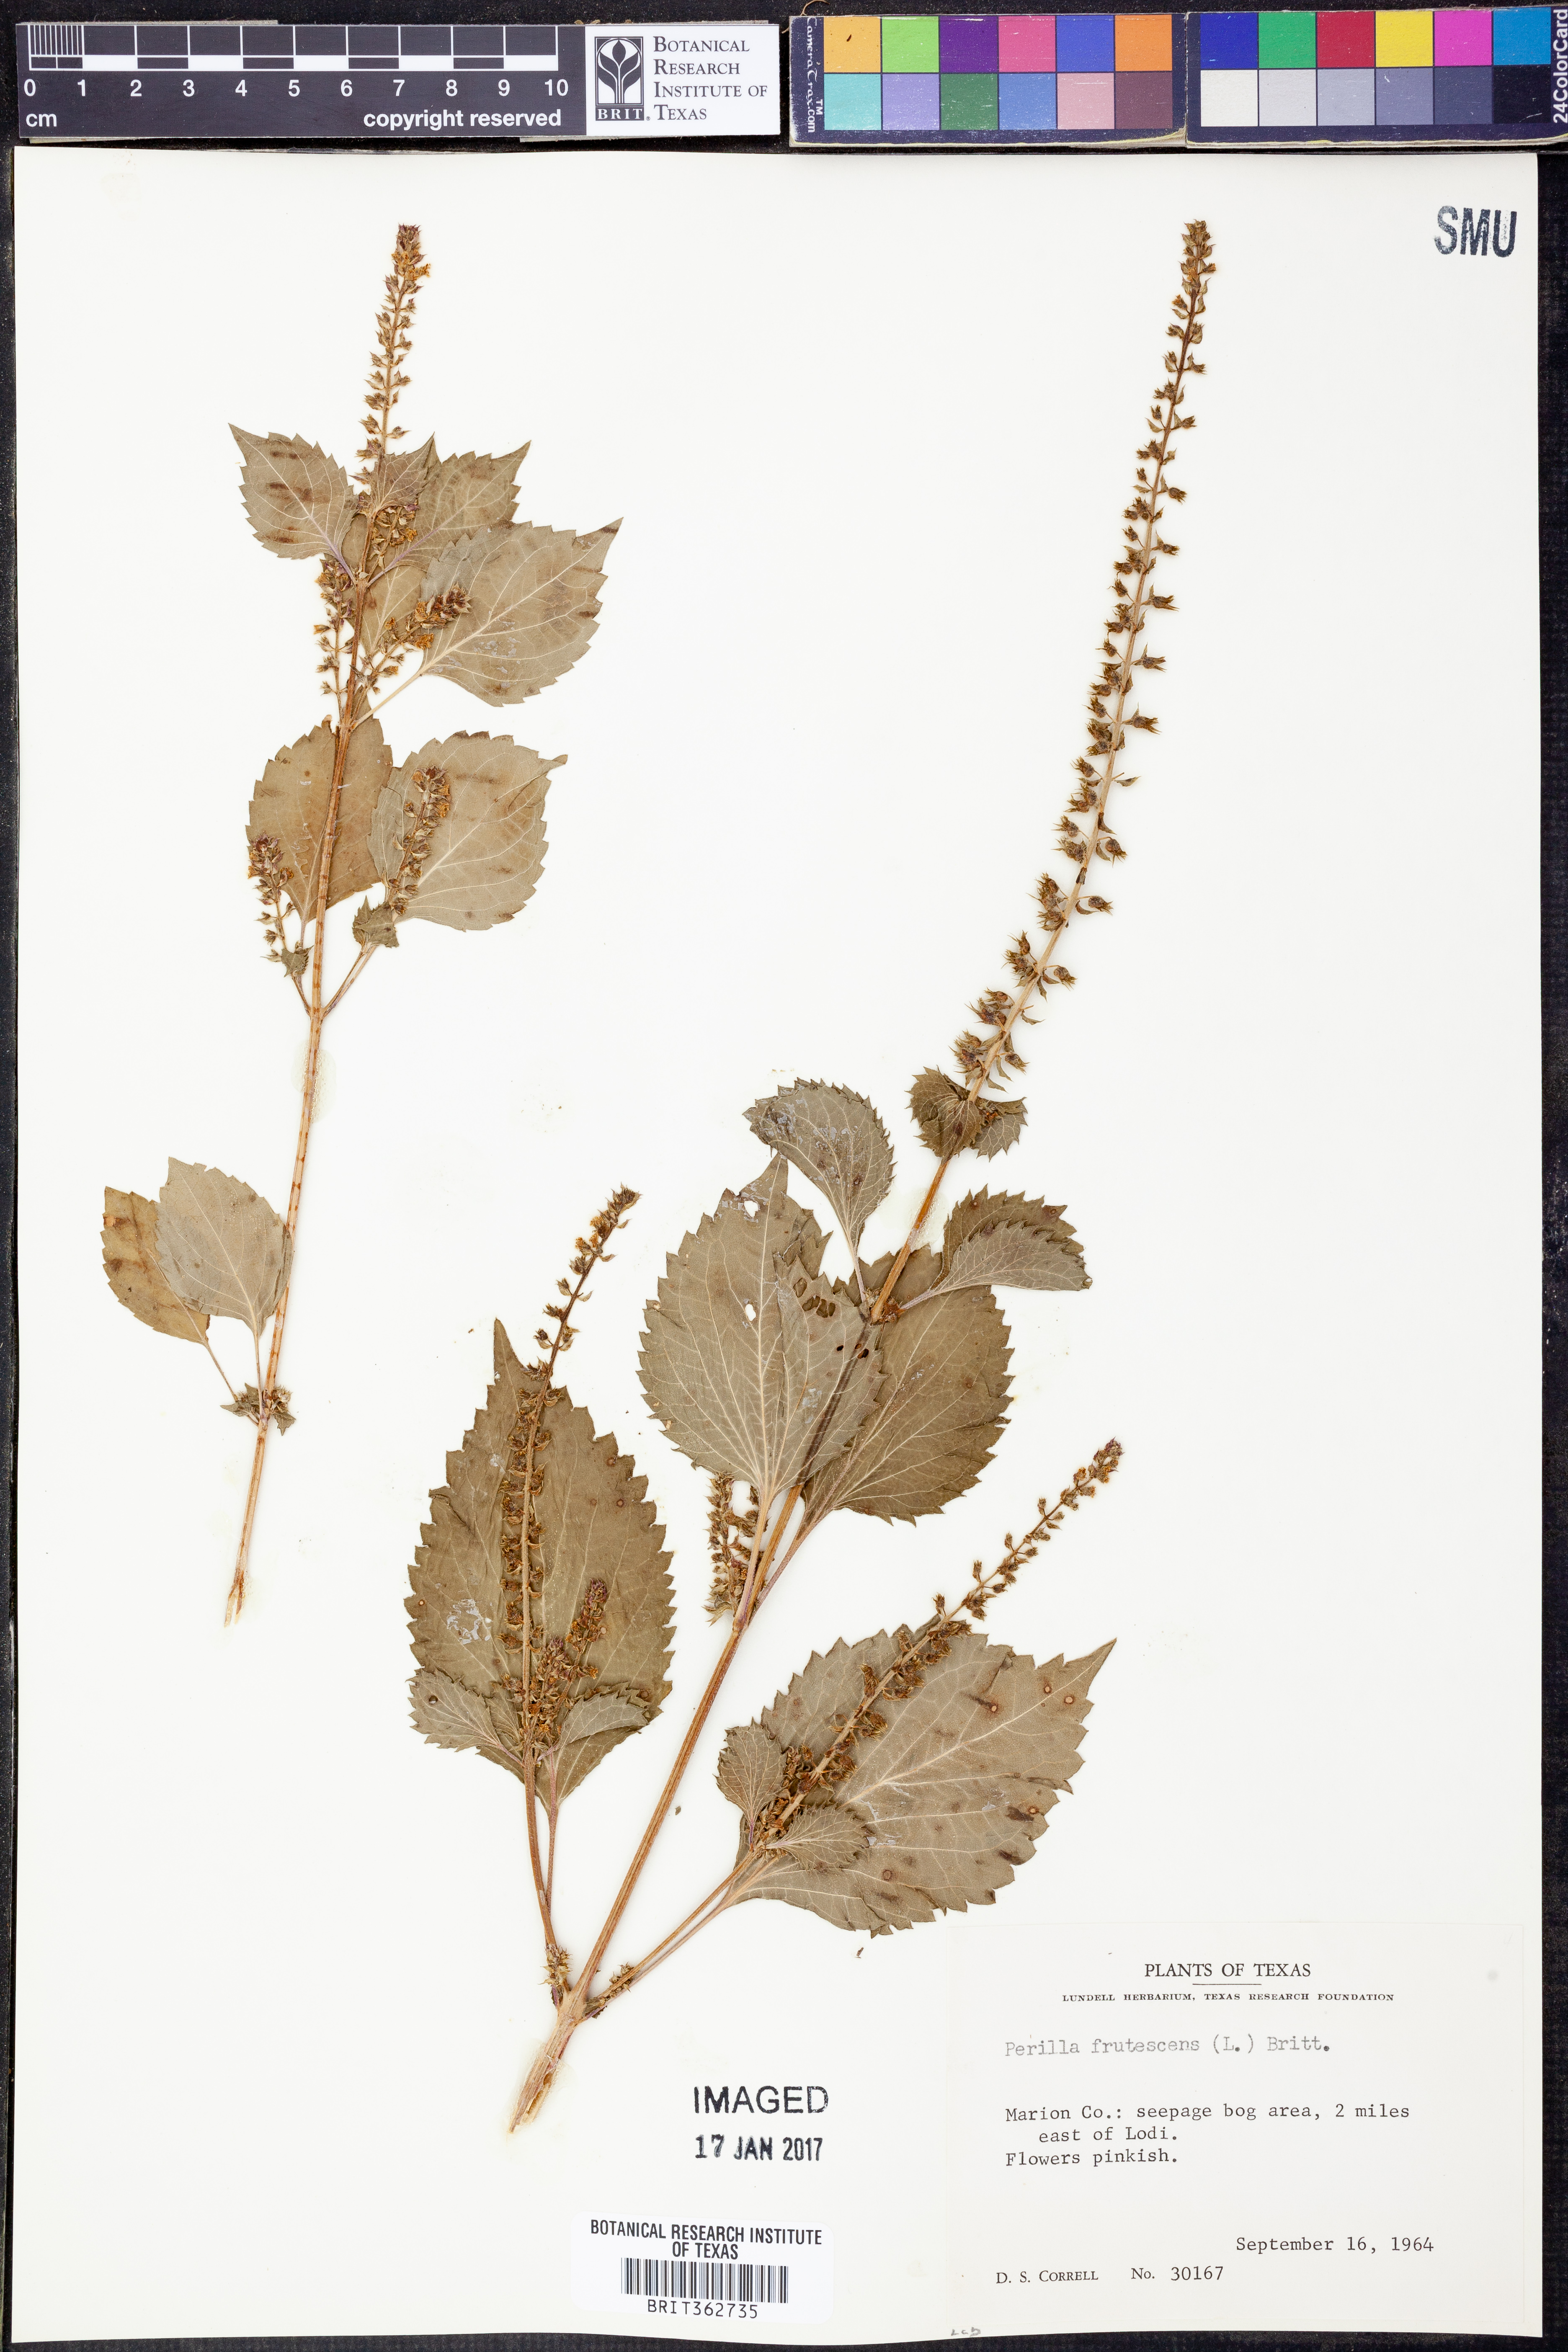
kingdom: Plantae
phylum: Tracheophyta
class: Magnoliopsida
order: Lamiales
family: Lamiaceae
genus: Perilla
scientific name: Perilla frutescens
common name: Perilla
